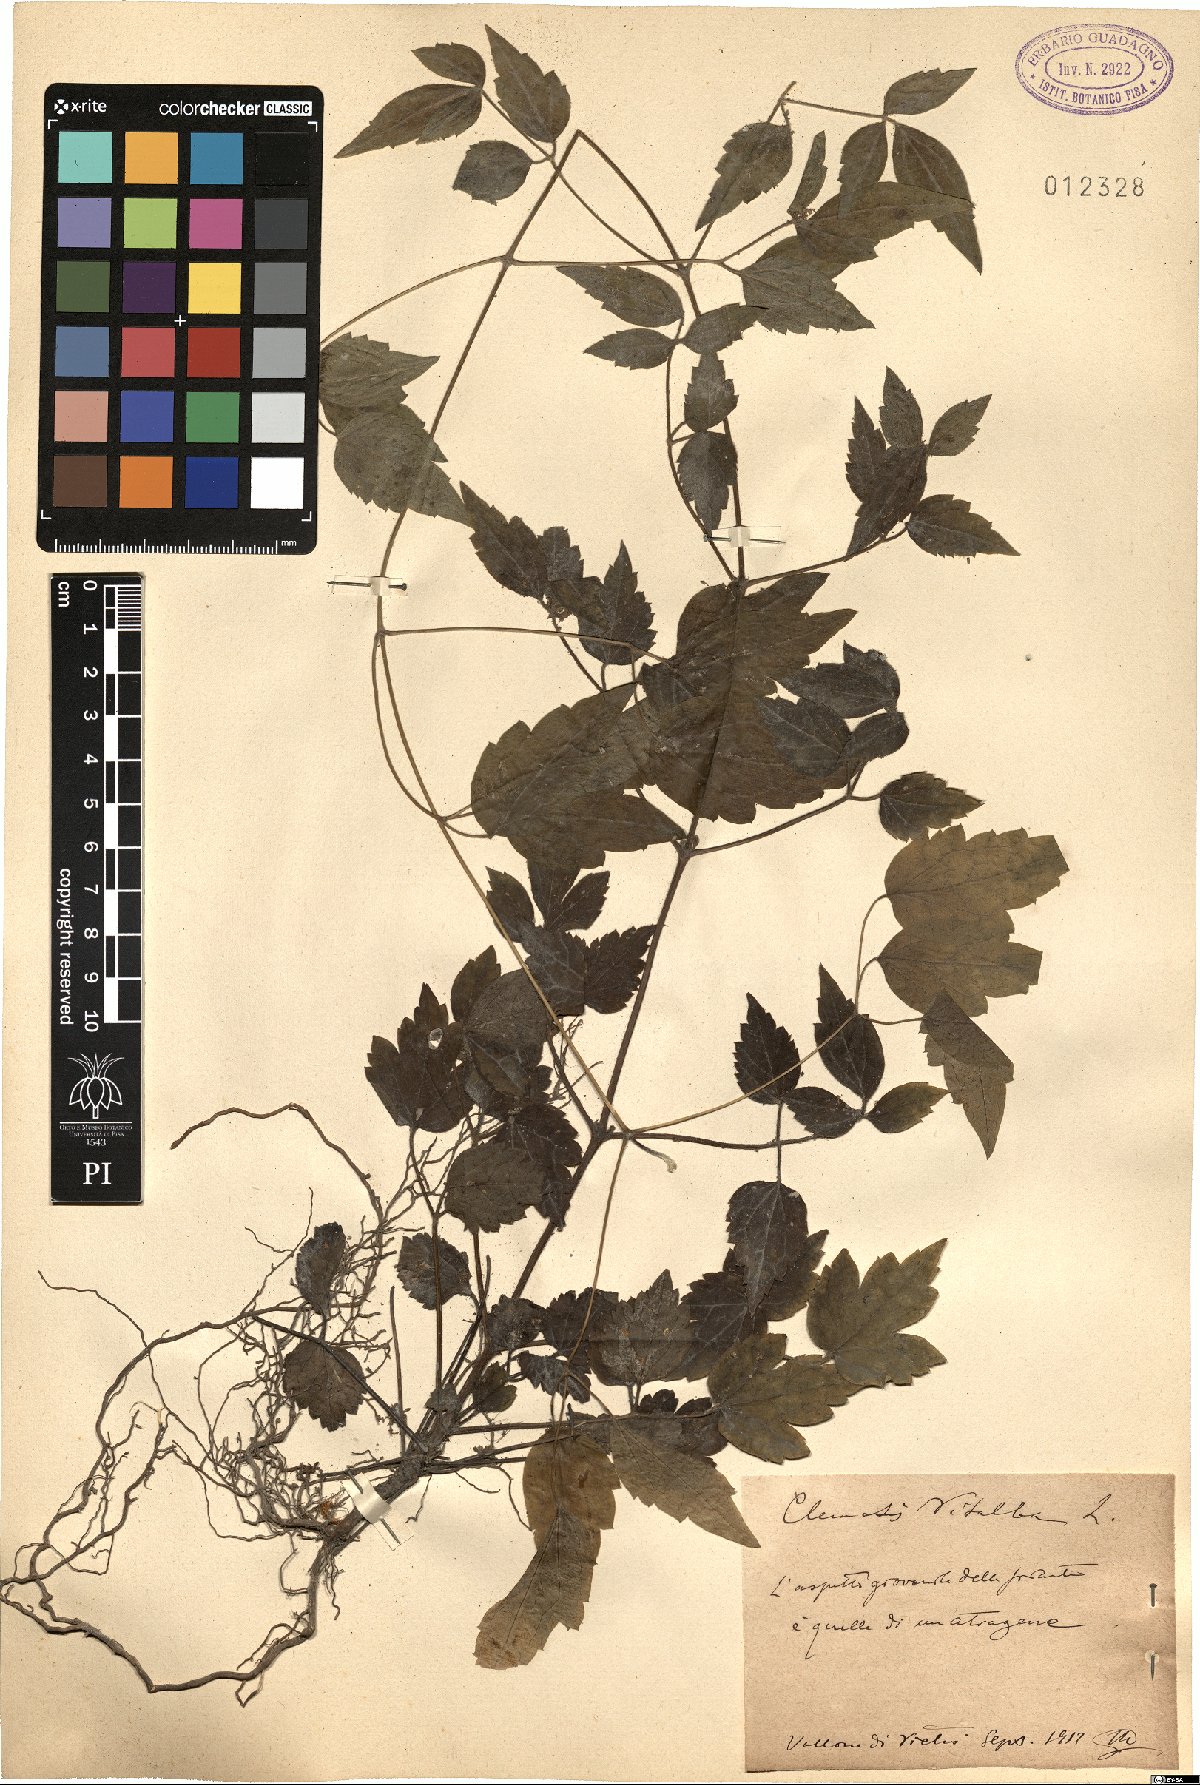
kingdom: Plantae
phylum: Tracheophyta
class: Magnoliopsida
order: Ranunculales
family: Ranunculaceae
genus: Clematis
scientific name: Clematis vitalba
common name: Evergreen clematis
